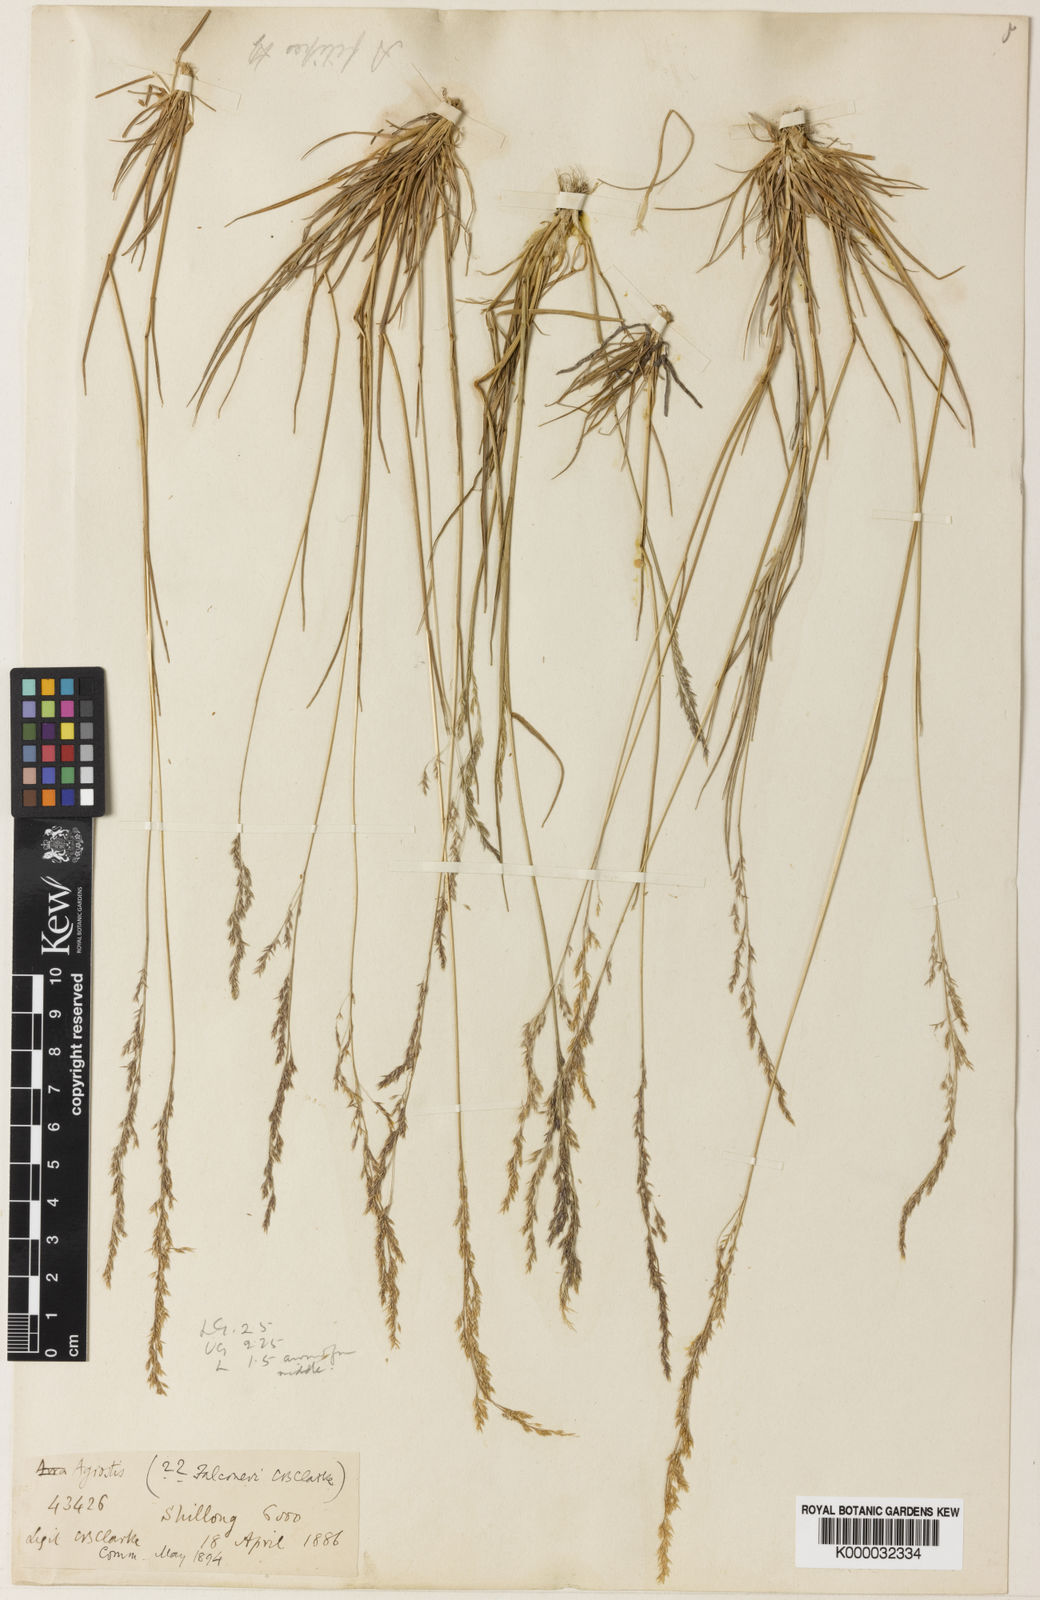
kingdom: Plantae
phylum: Tracheophyta
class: Liliopsida
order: Poales
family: Poaceae
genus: Agrostis
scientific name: Agrostis filipes
